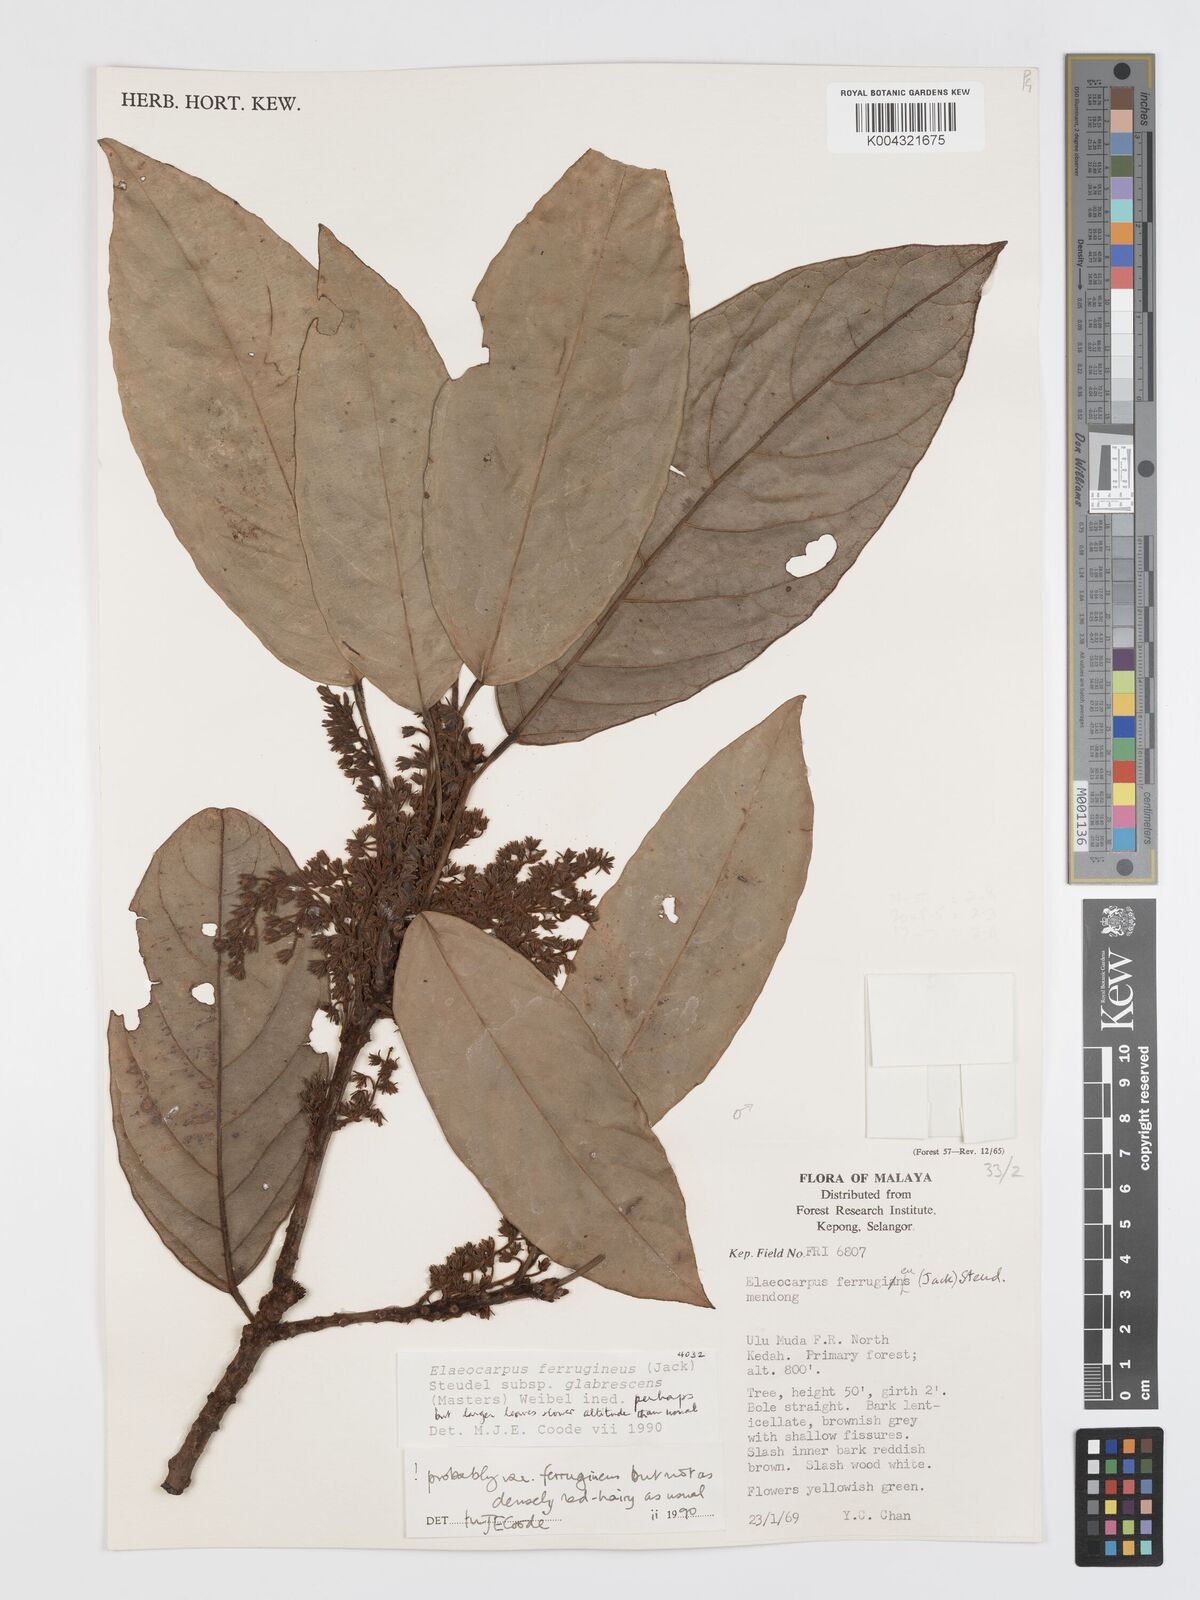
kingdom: Plantae
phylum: Tracheophyta
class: Magnoliopsida
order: Oxalidales
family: Elaeocarpaceae
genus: Elaeocarpus
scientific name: Elaeocarpus ferrugineus
